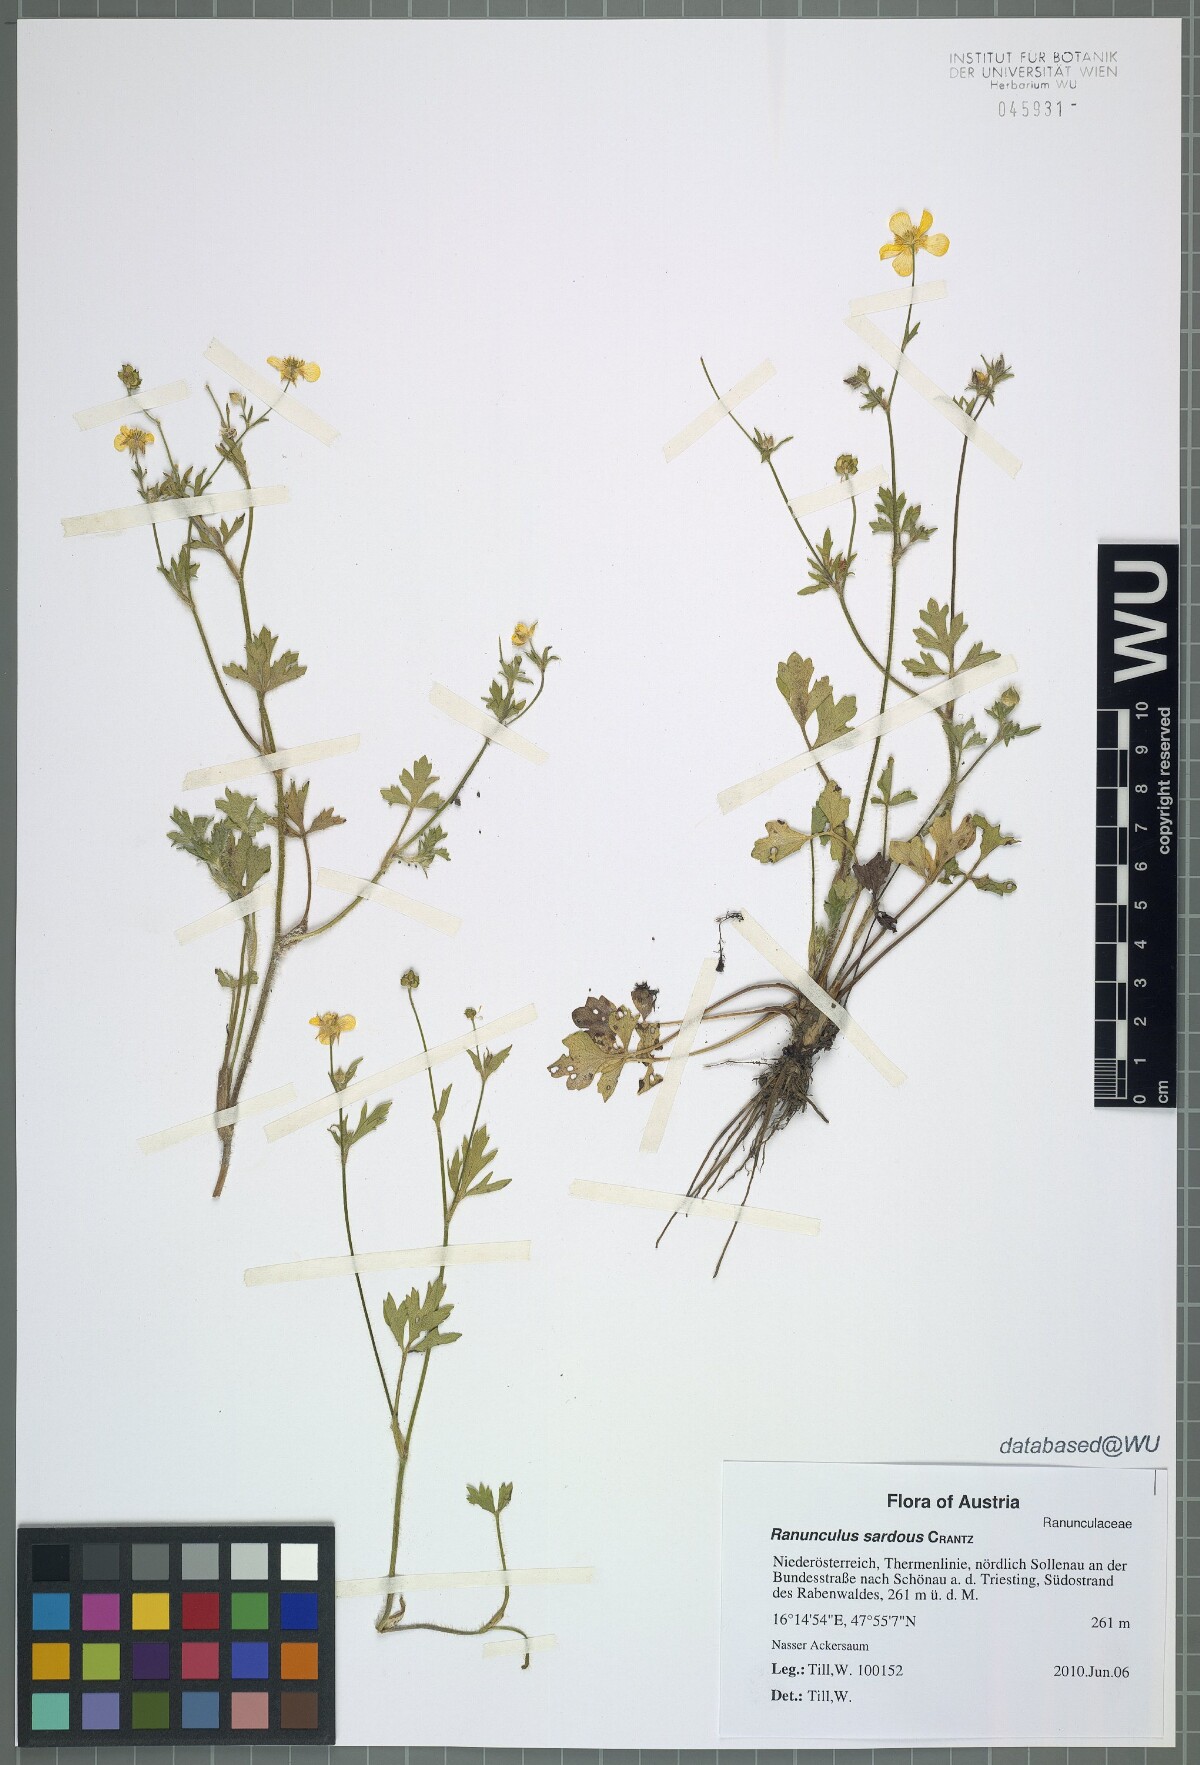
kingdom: Plantae
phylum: Tracheophyta
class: Magnoliopsida
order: Ranunculales
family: Ranunculaceae
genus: Ranunculus
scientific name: Ranunculus sardous
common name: Hairy buttercup
